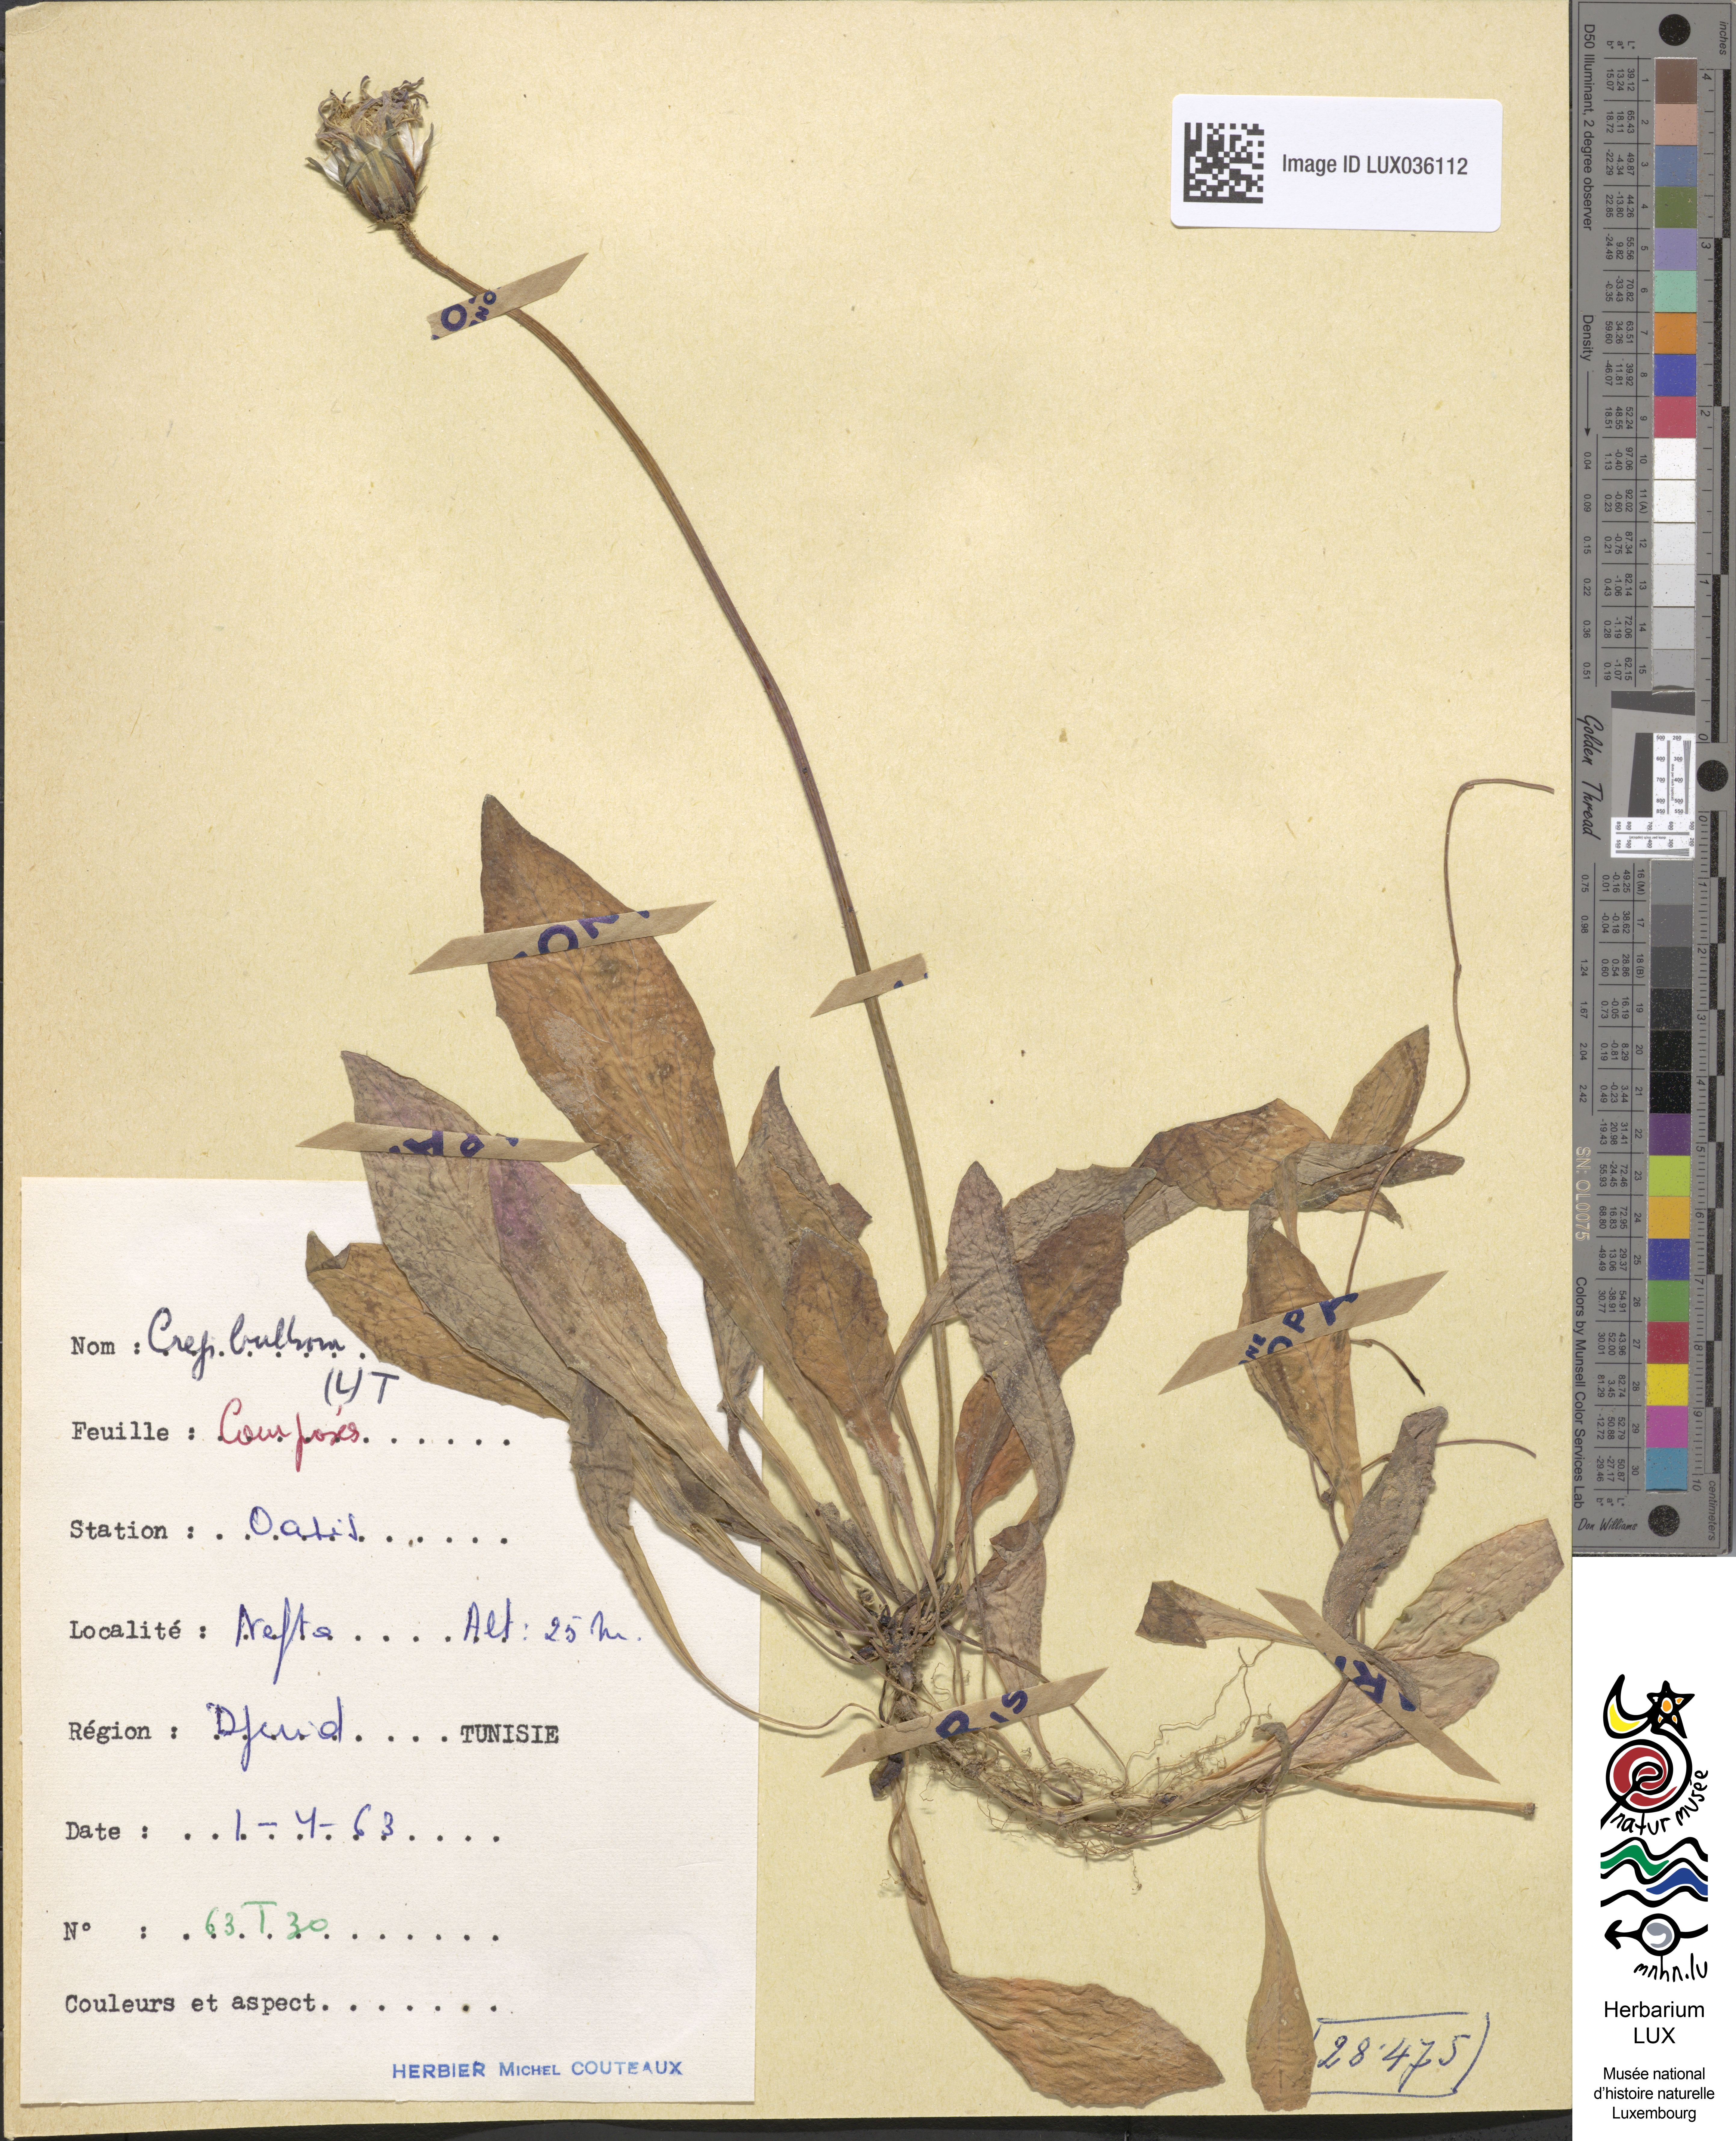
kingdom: Plantae
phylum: Tracheophyta
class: Magnoliopsida
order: Asterales
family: Asteraceae
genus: Aetheorhiza
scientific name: Aetheorhiza bulbosa
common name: Tuberous hawk's-beard
